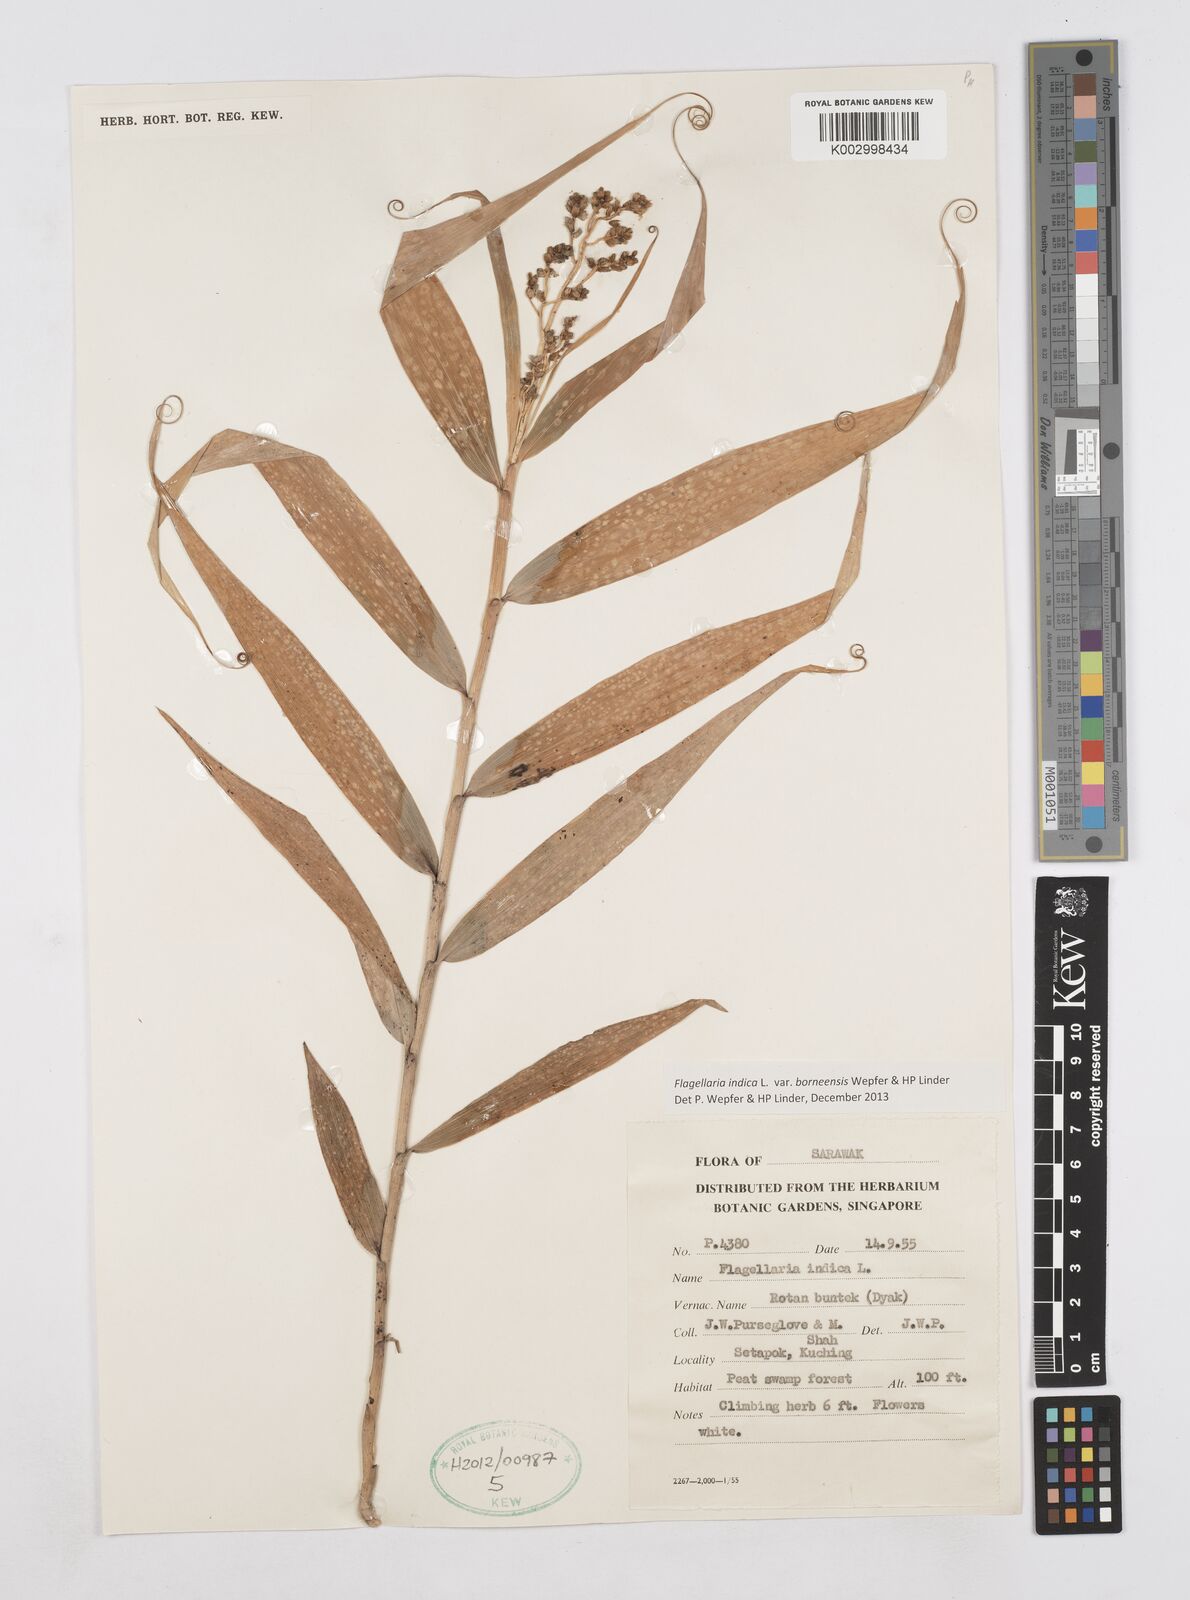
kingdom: Plantae
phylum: Tracheophyta
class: Liliopsida
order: Poales
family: Flagellariaceae
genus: Flagellaria
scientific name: Flagellaria indica
